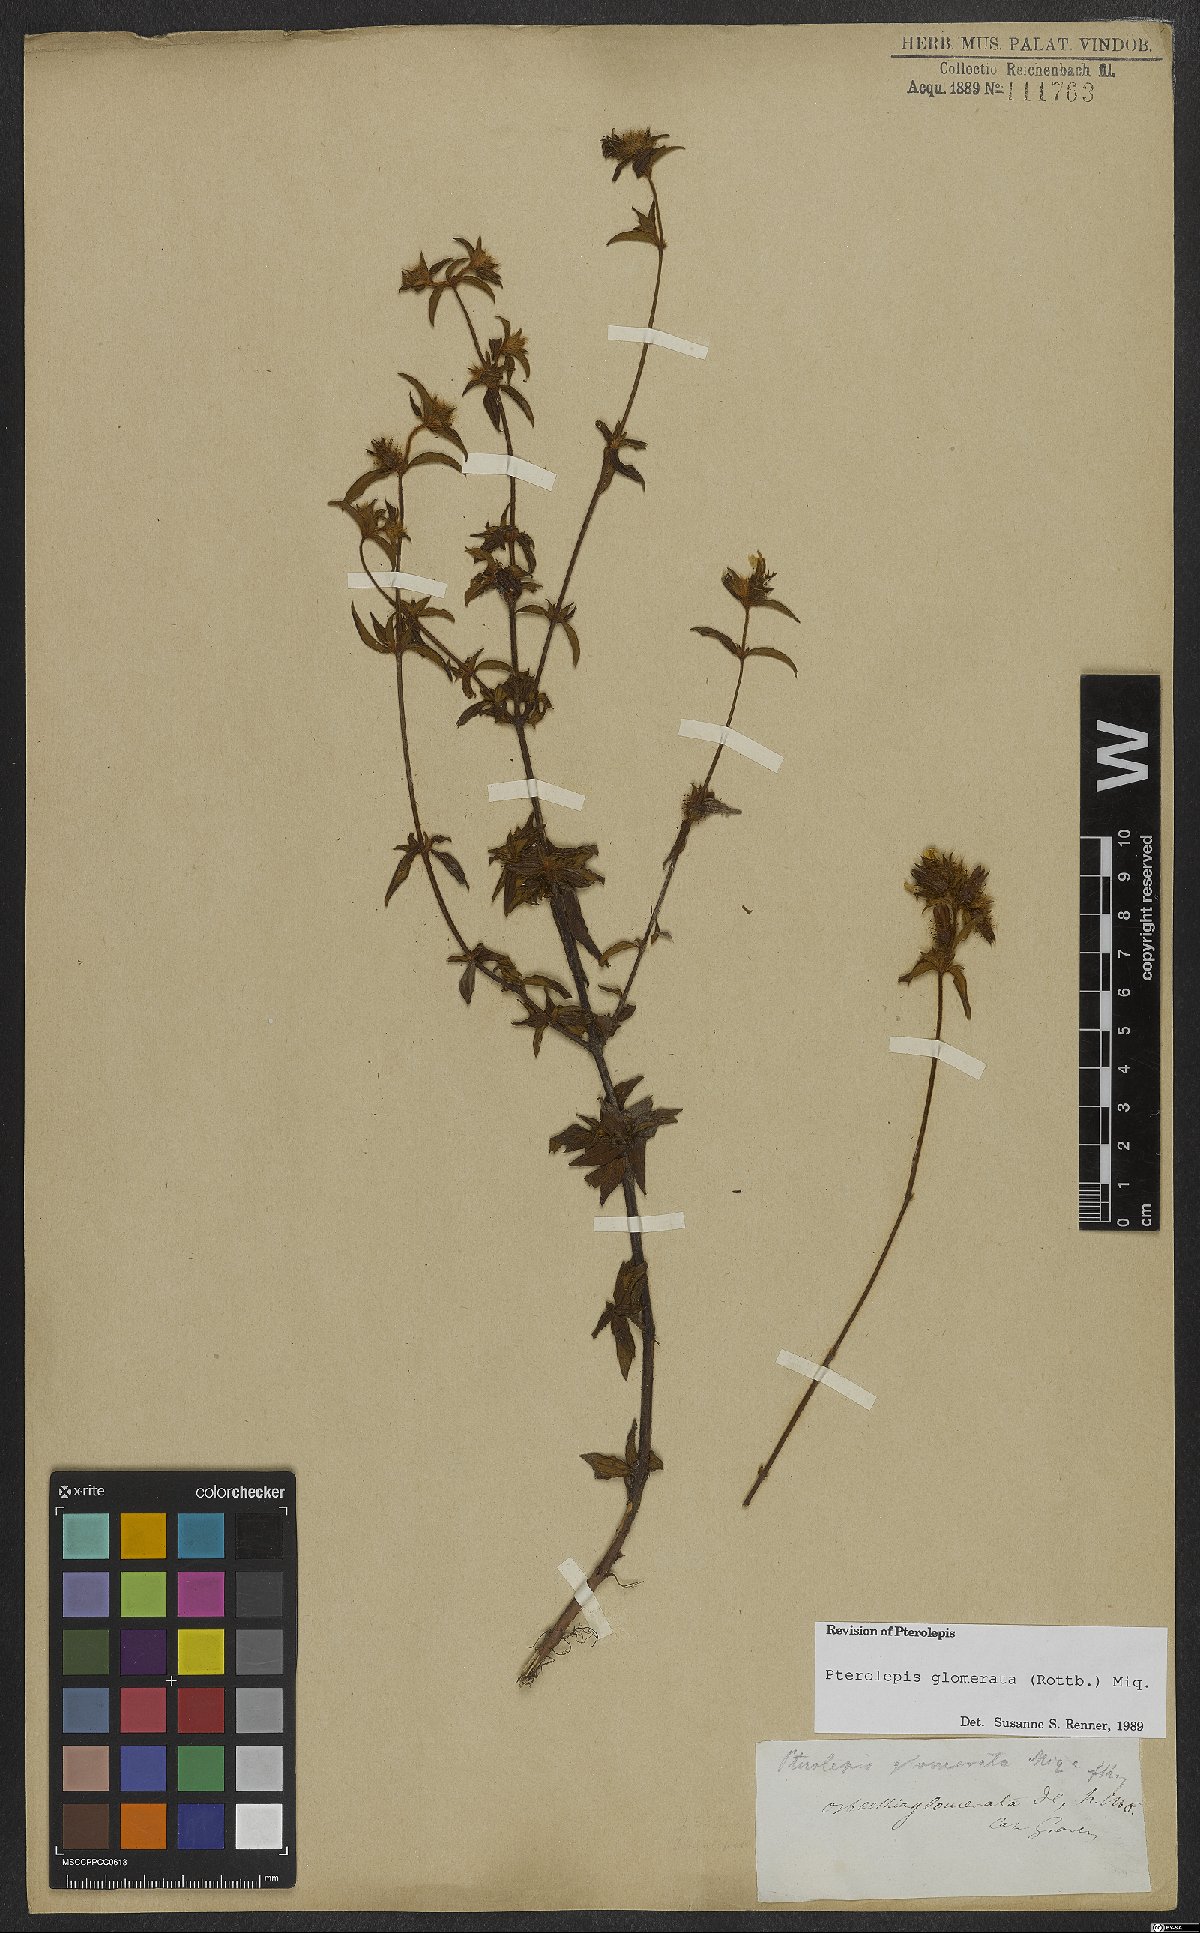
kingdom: Plantae
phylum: Tracheophyta
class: Magnoliopsida
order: Myrtales
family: Melastomataceae
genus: Pterolepis
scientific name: Pterolepis glomerata
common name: False meadowbeauty
